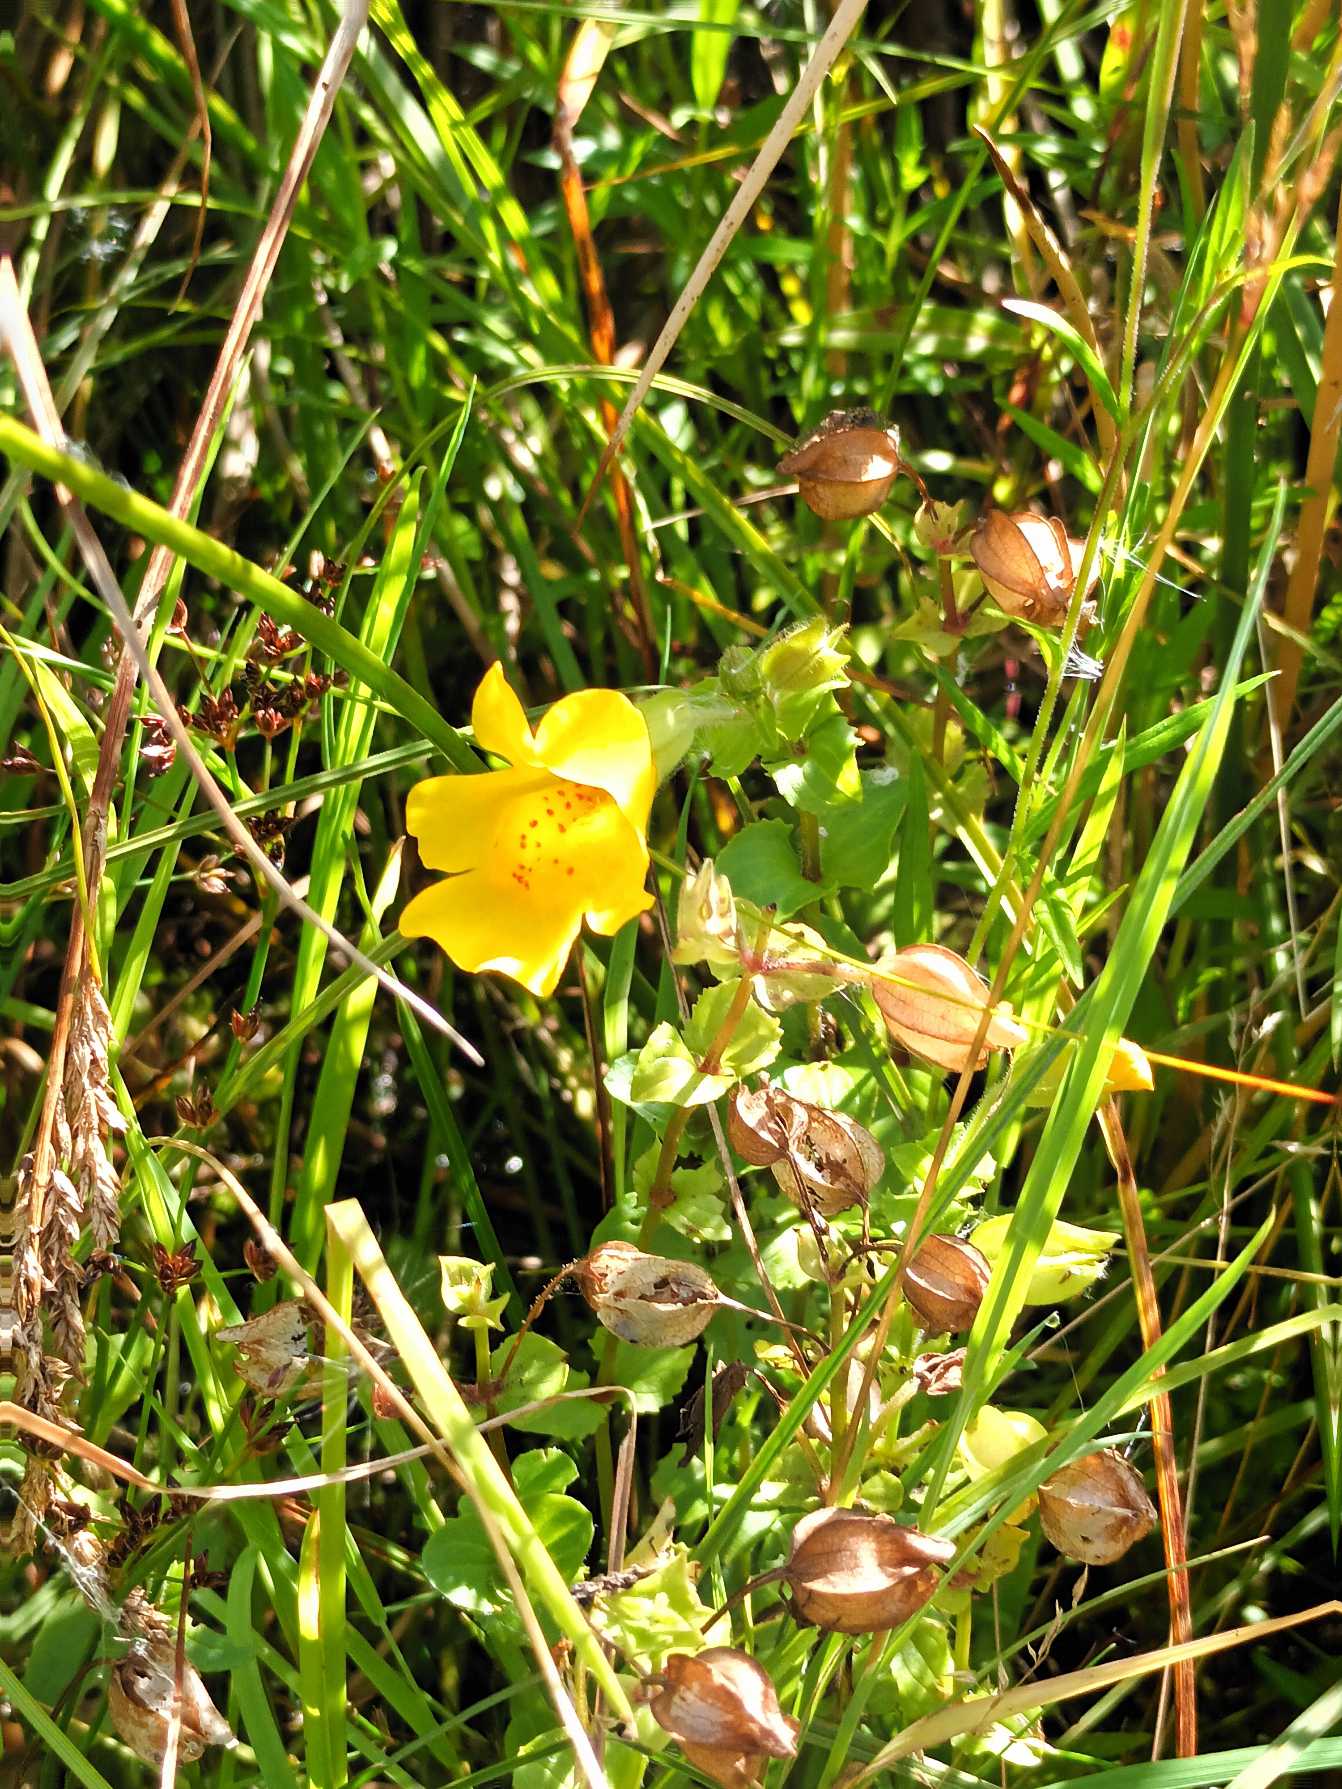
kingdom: Plantae
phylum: Tracheophyta
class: Magnoliopsida
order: Lamiales
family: Phrymaceae
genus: Erythranthe
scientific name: Erythranthe guttata
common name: Abeblomst
